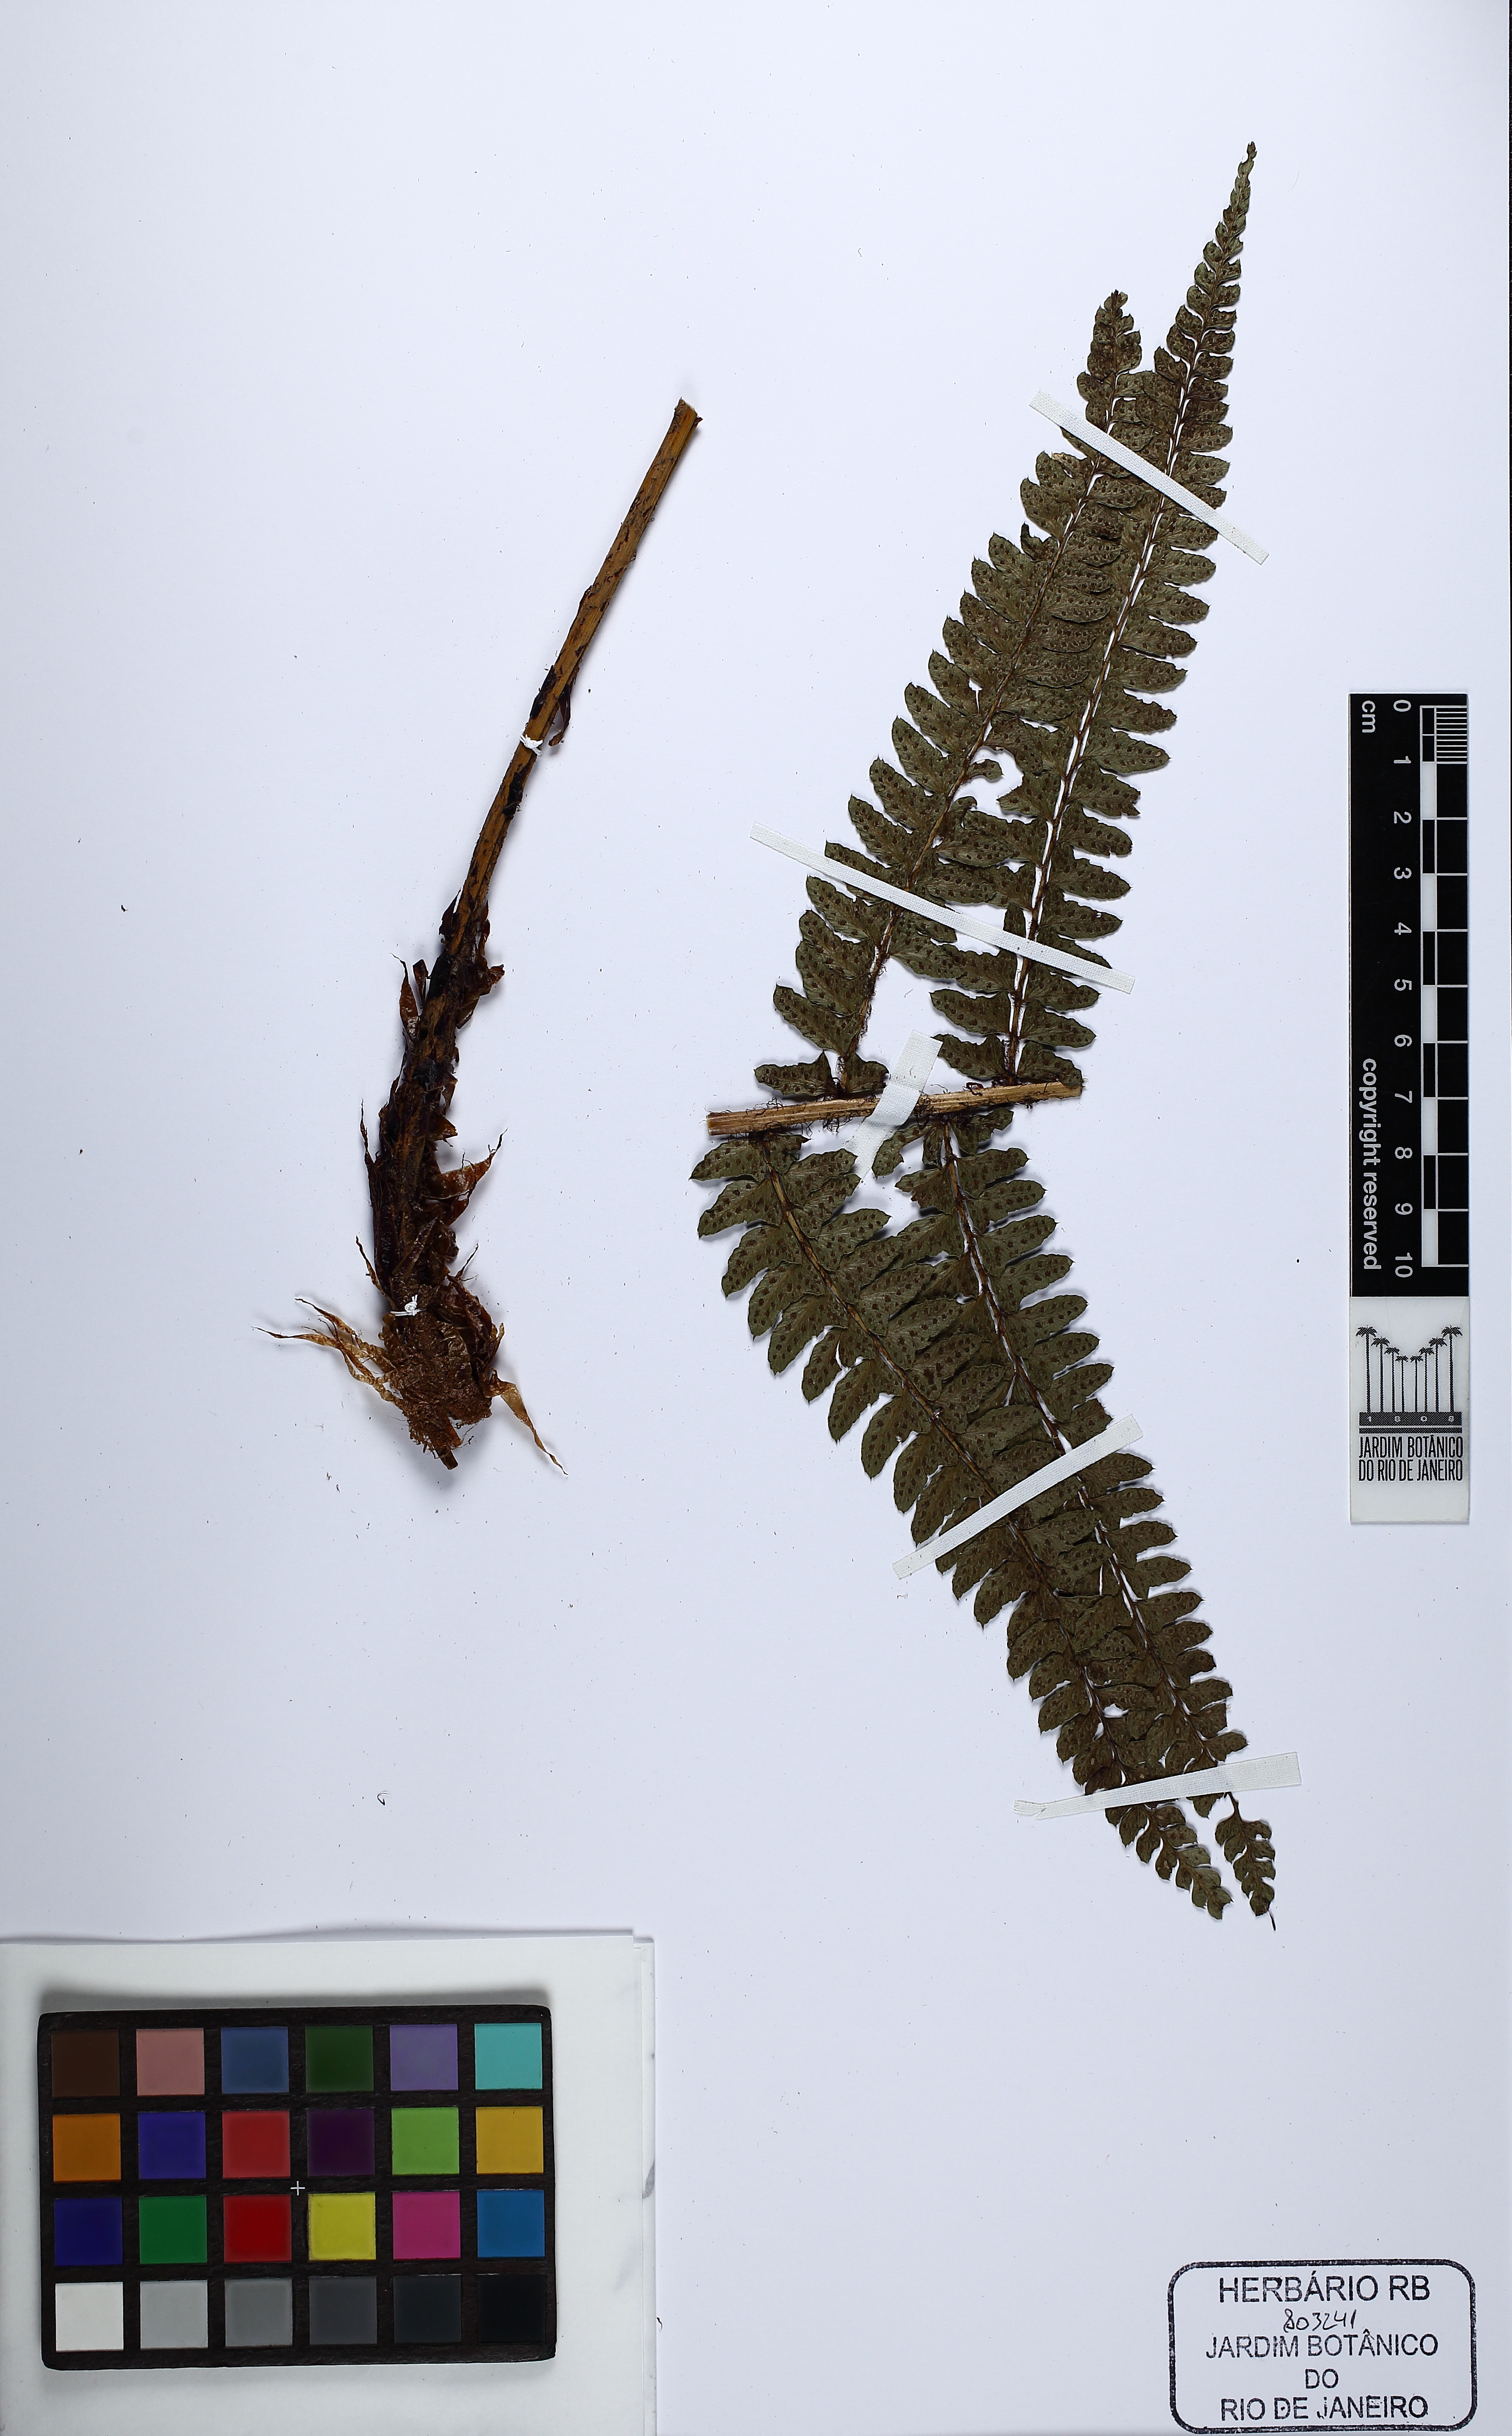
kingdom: Plantae
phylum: Tracheophyta
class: Polypodiopsida
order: Polypodiales
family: Dryopteridaceae
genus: Polystichum
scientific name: Polystichum
